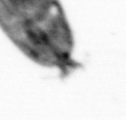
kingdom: Animalia
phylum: Arthropoda
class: Maxillopoda
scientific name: Maxillopoda
